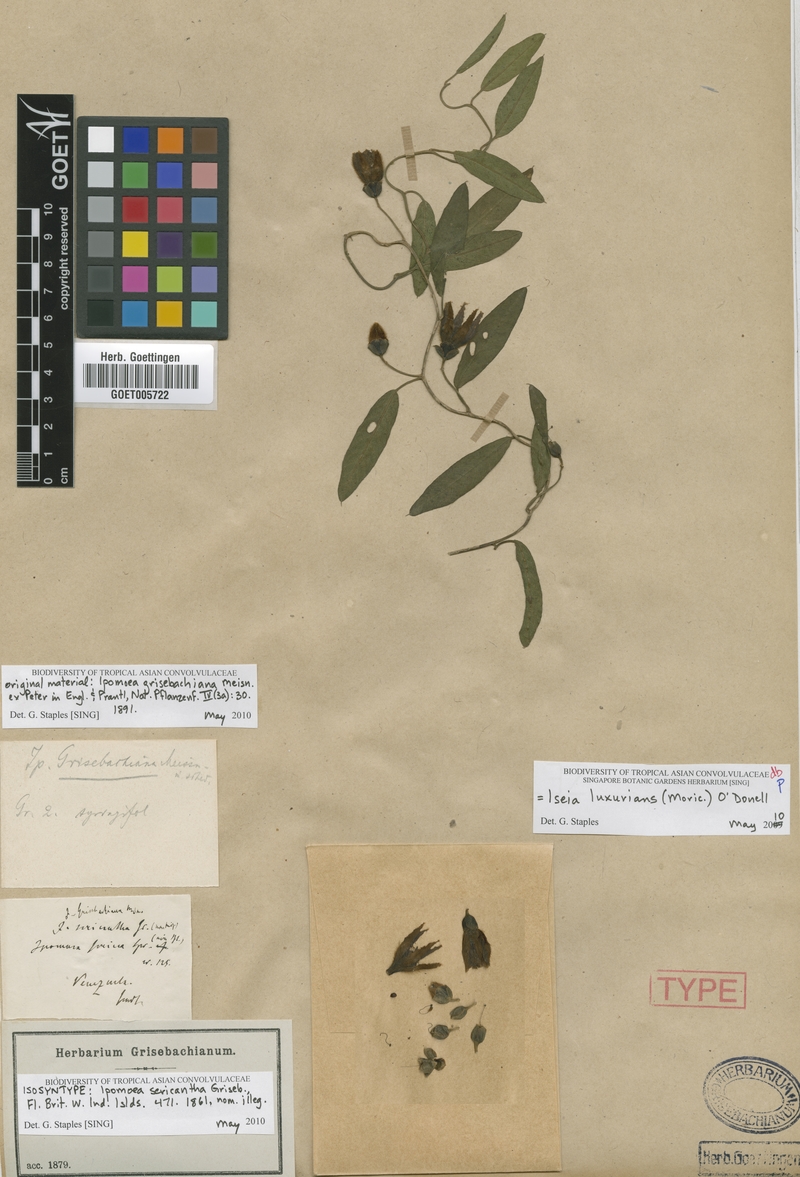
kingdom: Plantae
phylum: Tracheophyta
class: Magnoliopsida
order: Solanales
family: Convolvulaceae
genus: Aniseia
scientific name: Aniseia luxurians
